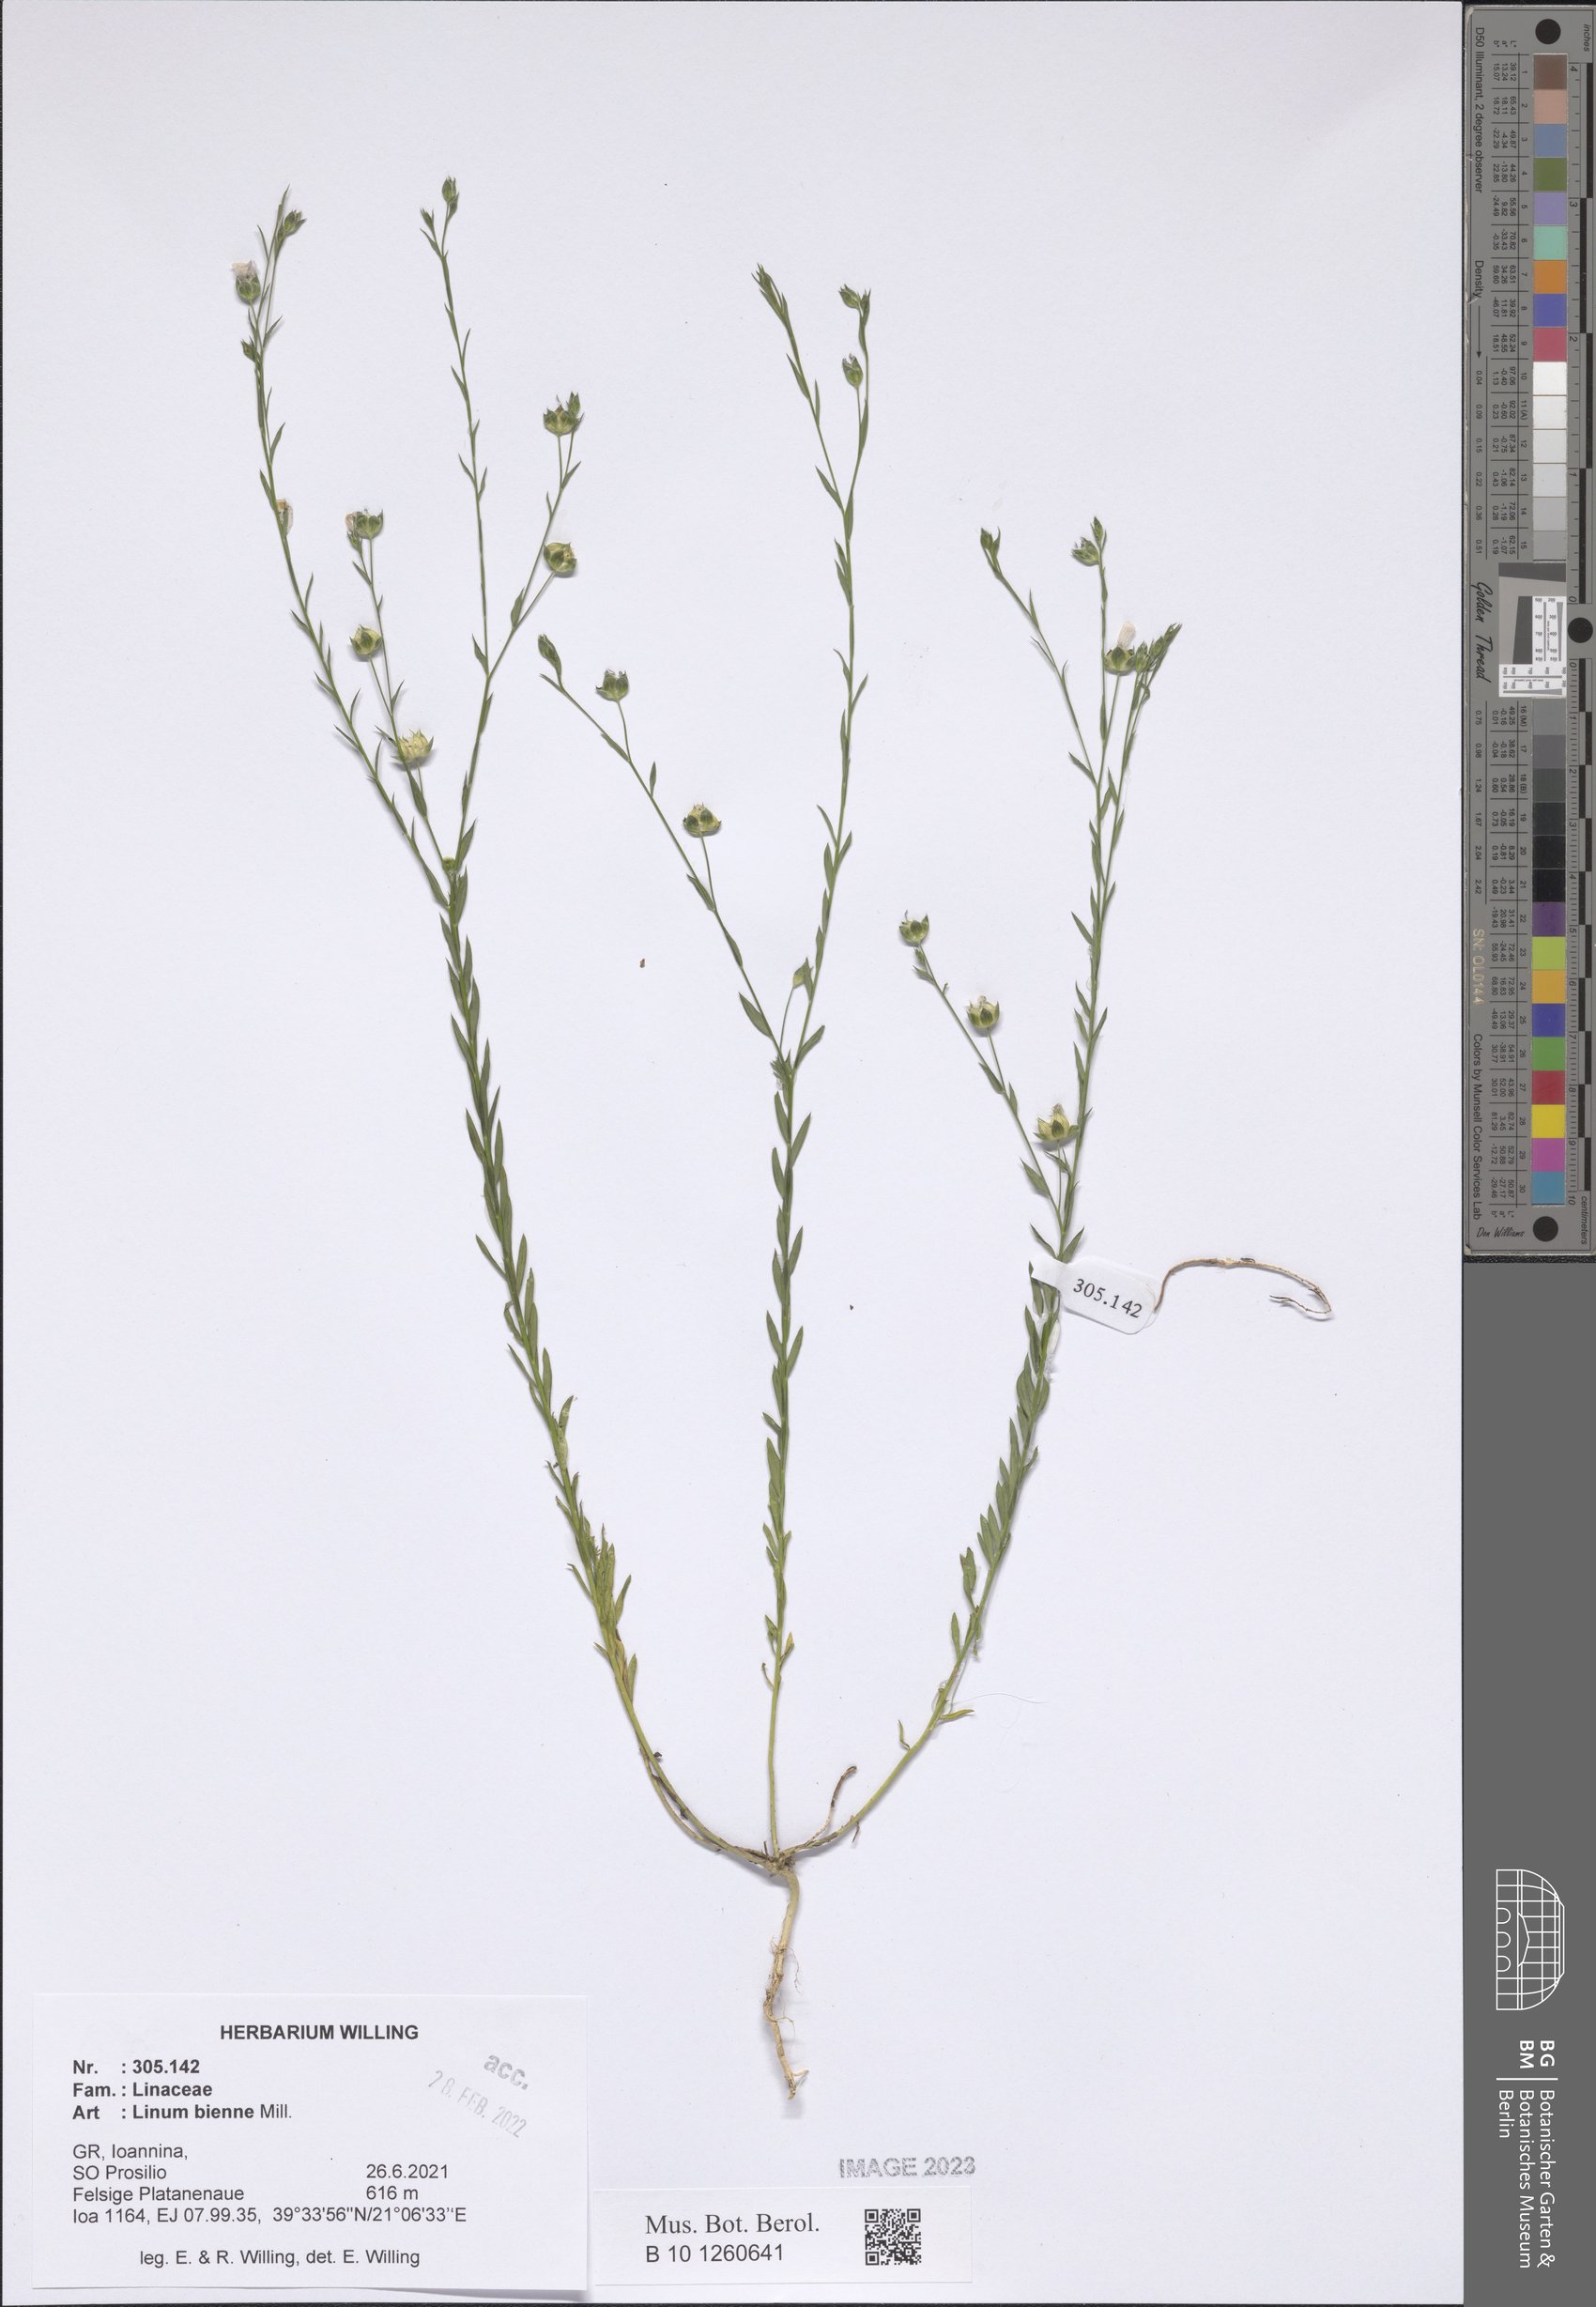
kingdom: Plantae
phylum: Tracheophyta
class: Magnoliopsida
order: Malpighiales
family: Linaceae
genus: Linum
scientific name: Linum bienne
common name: Pale flax
